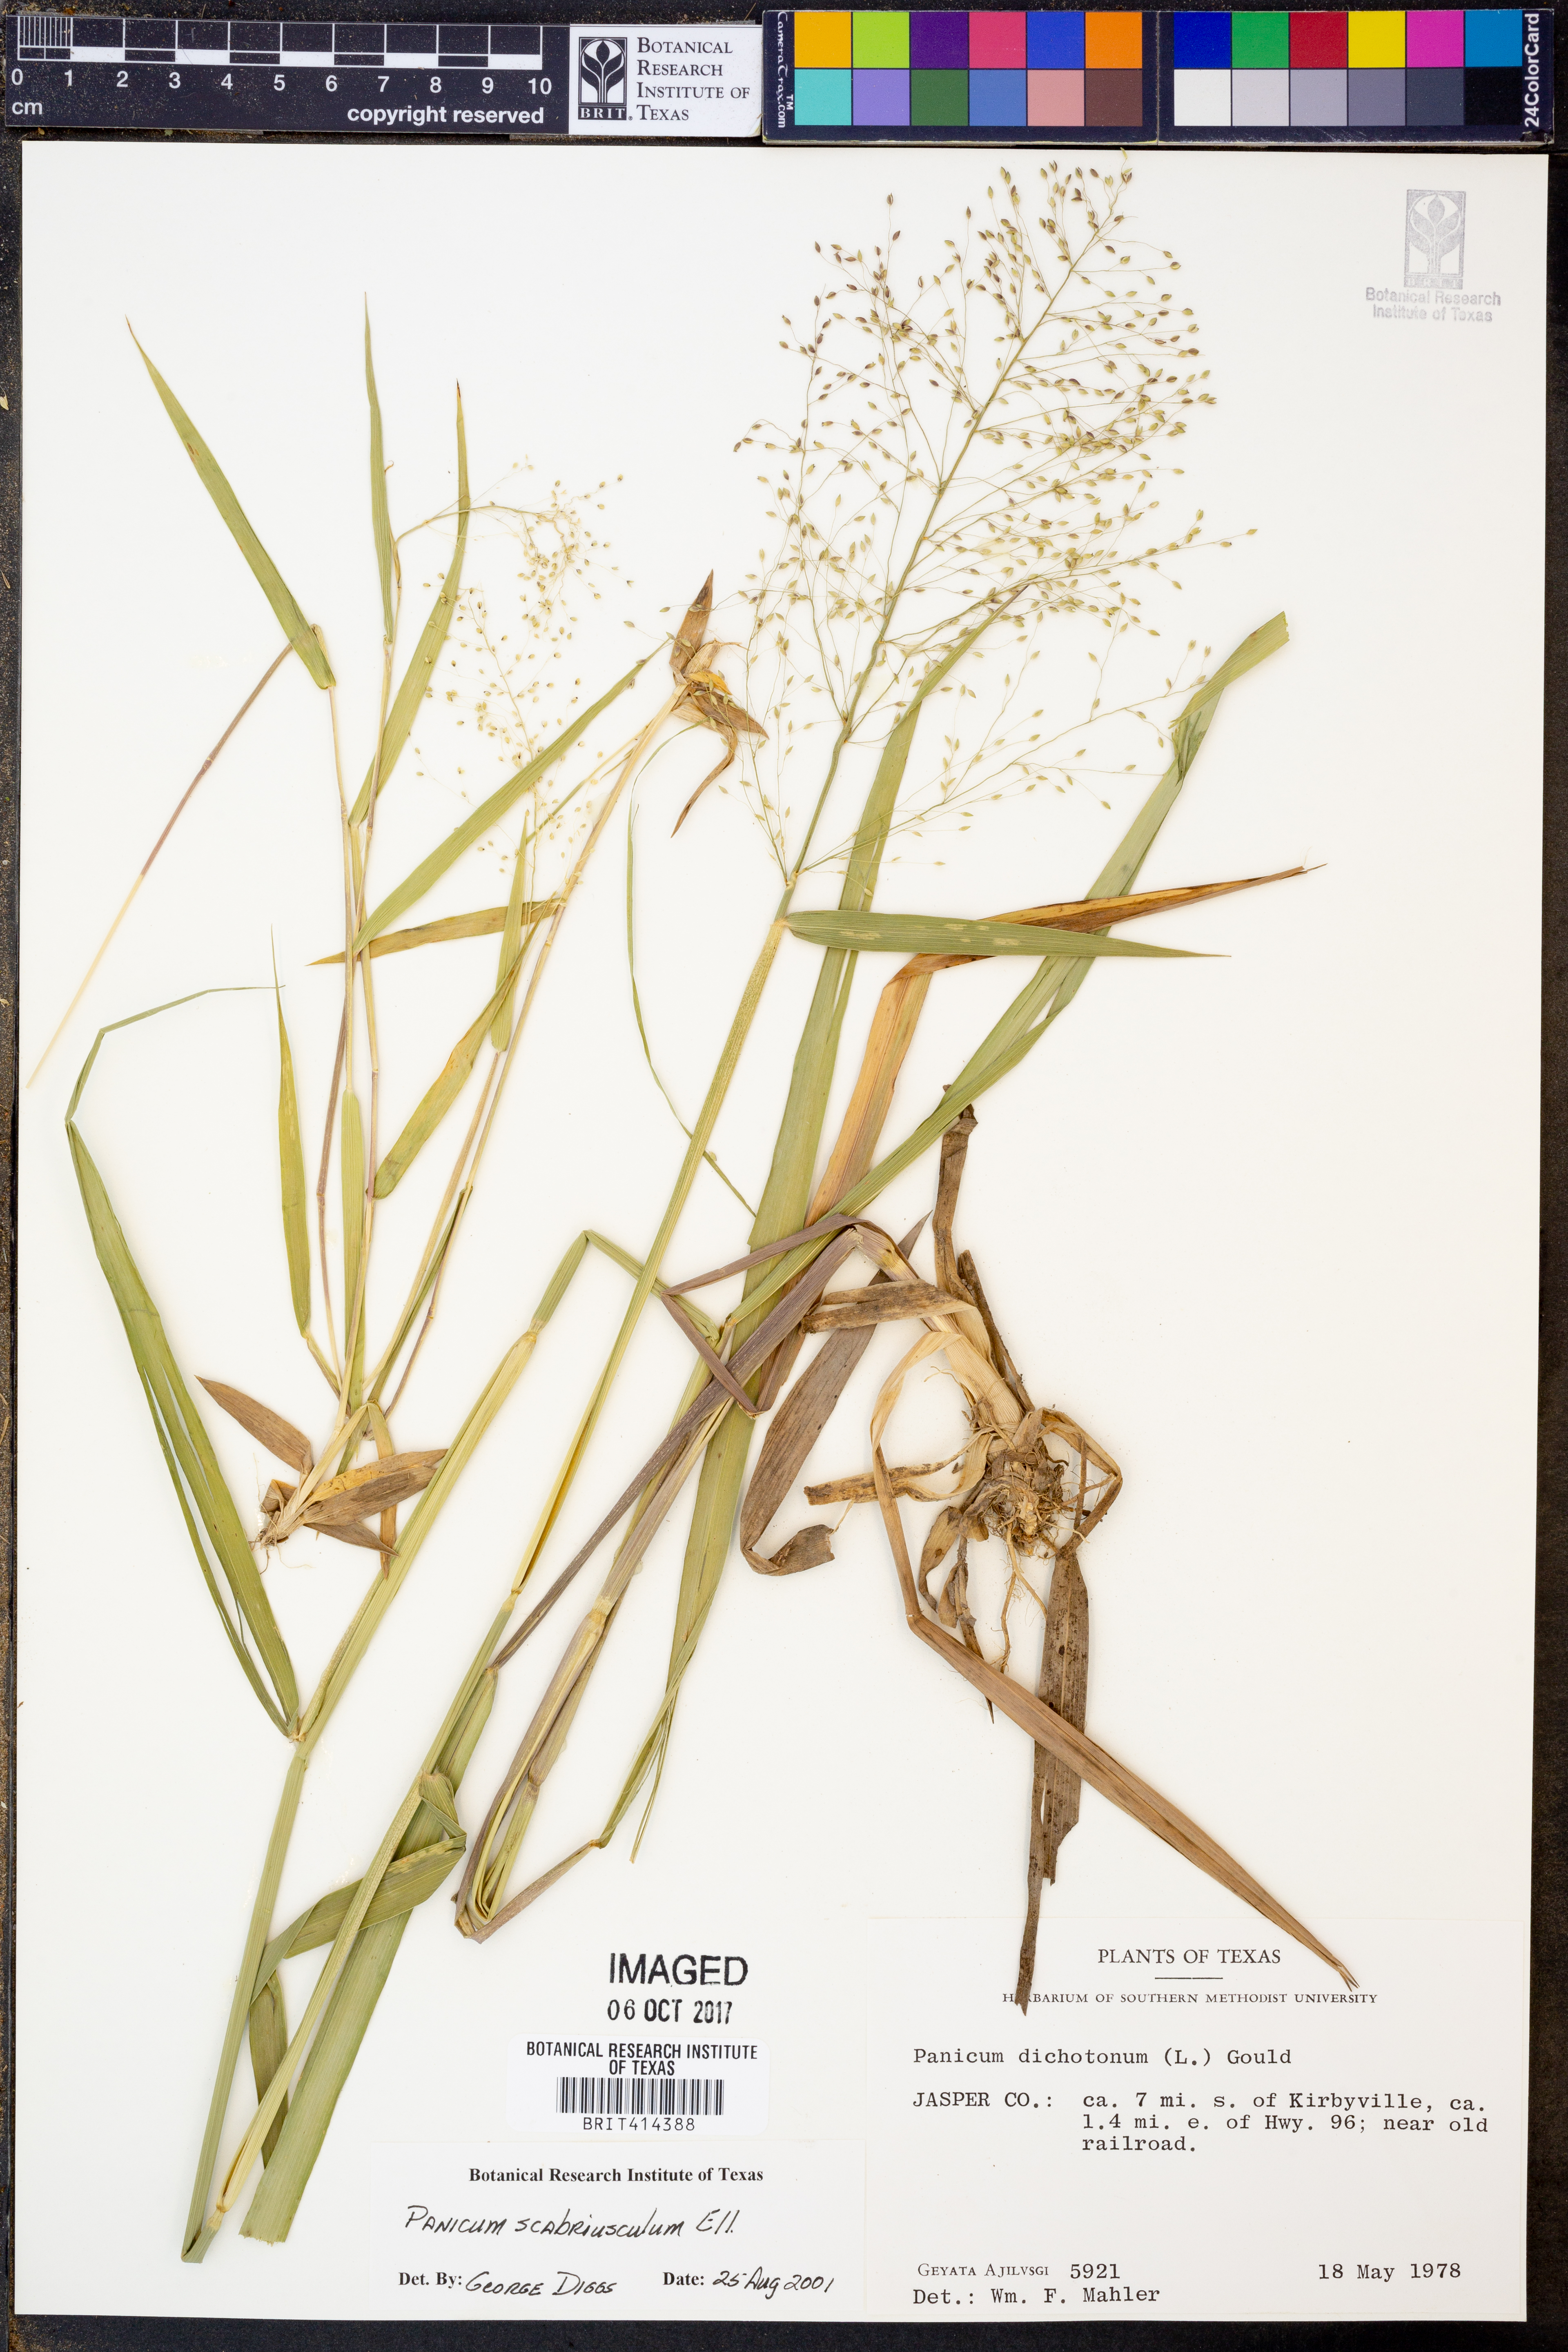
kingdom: Plantae
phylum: Tracheophyta
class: Liliopsida
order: Poales
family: Poaceae
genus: Dichanthelium
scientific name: Dichanthelium scabriusculum
